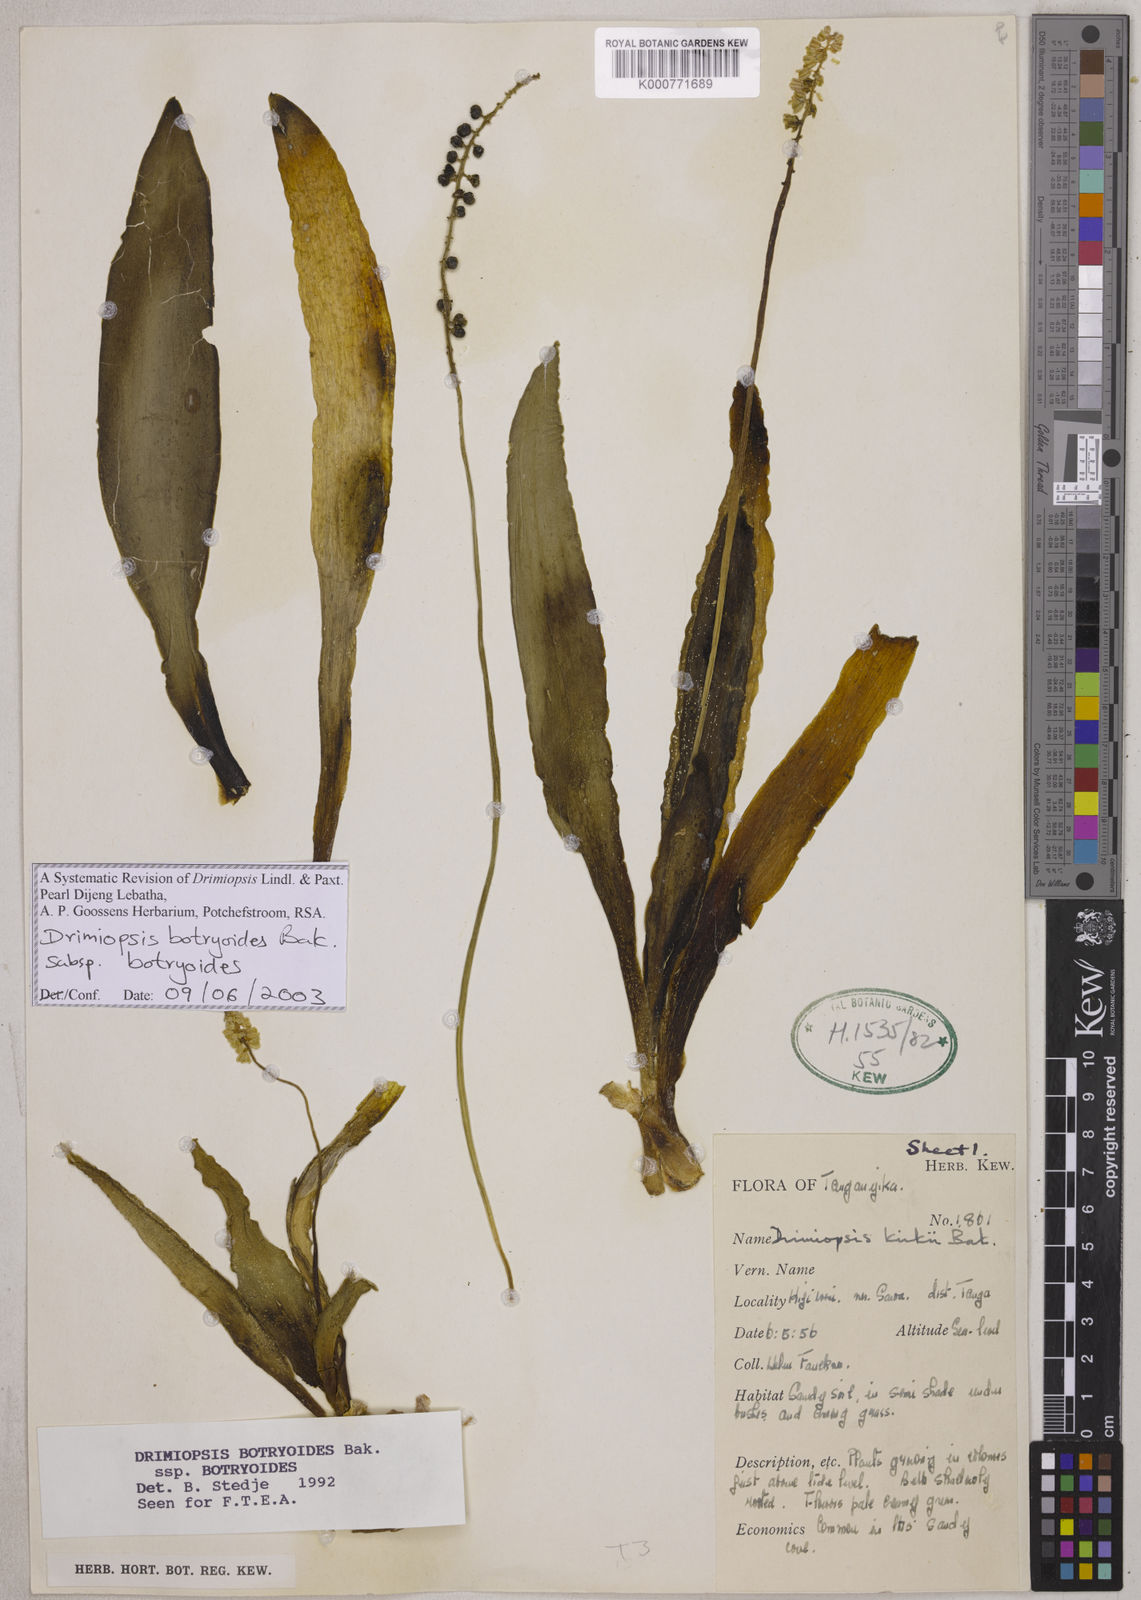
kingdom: Plantae
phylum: Tracheophyta
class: Liliopsida
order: Asparagales
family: Asparagaceae
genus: Drimiopsis
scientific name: Drimiopsis botryoides
